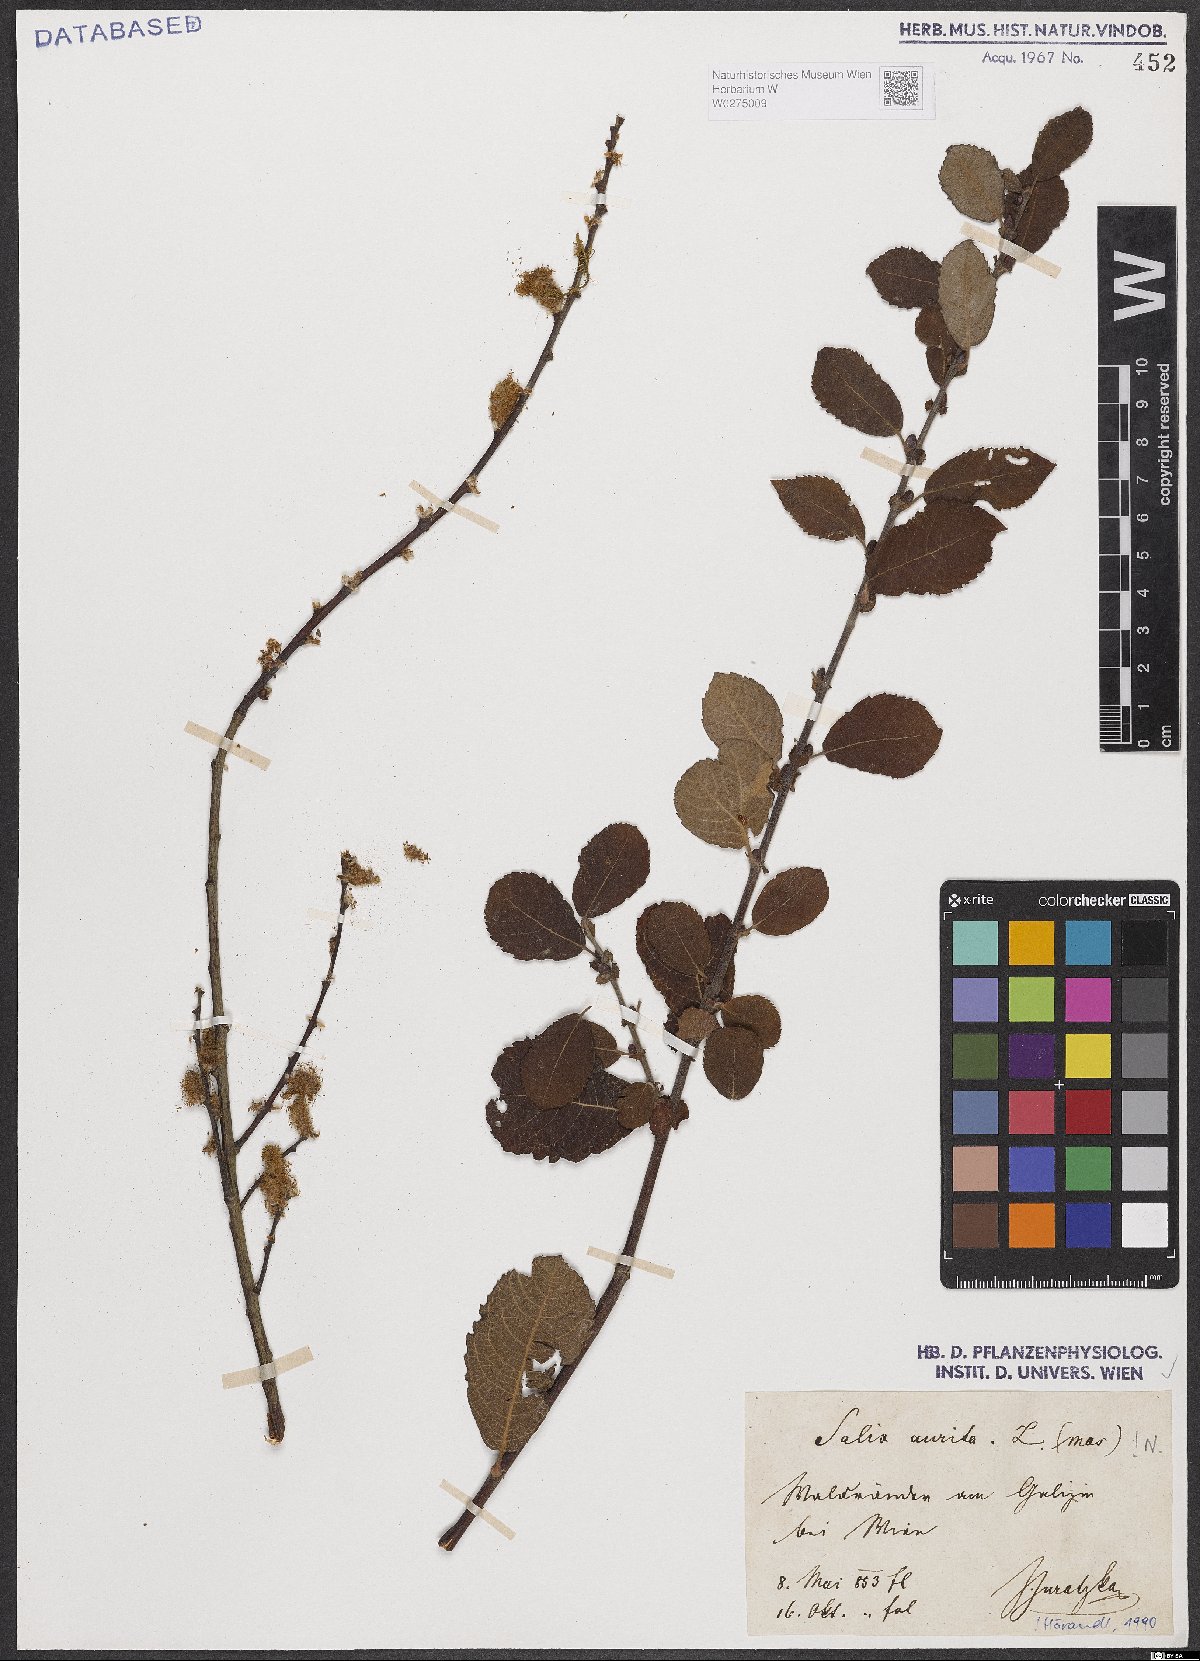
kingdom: Plantae
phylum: Tracheophyta
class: Magnoliopsida
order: Malpighiales
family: Salicaceae
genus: Salix
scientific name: Salix aurita
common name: Eared willow
